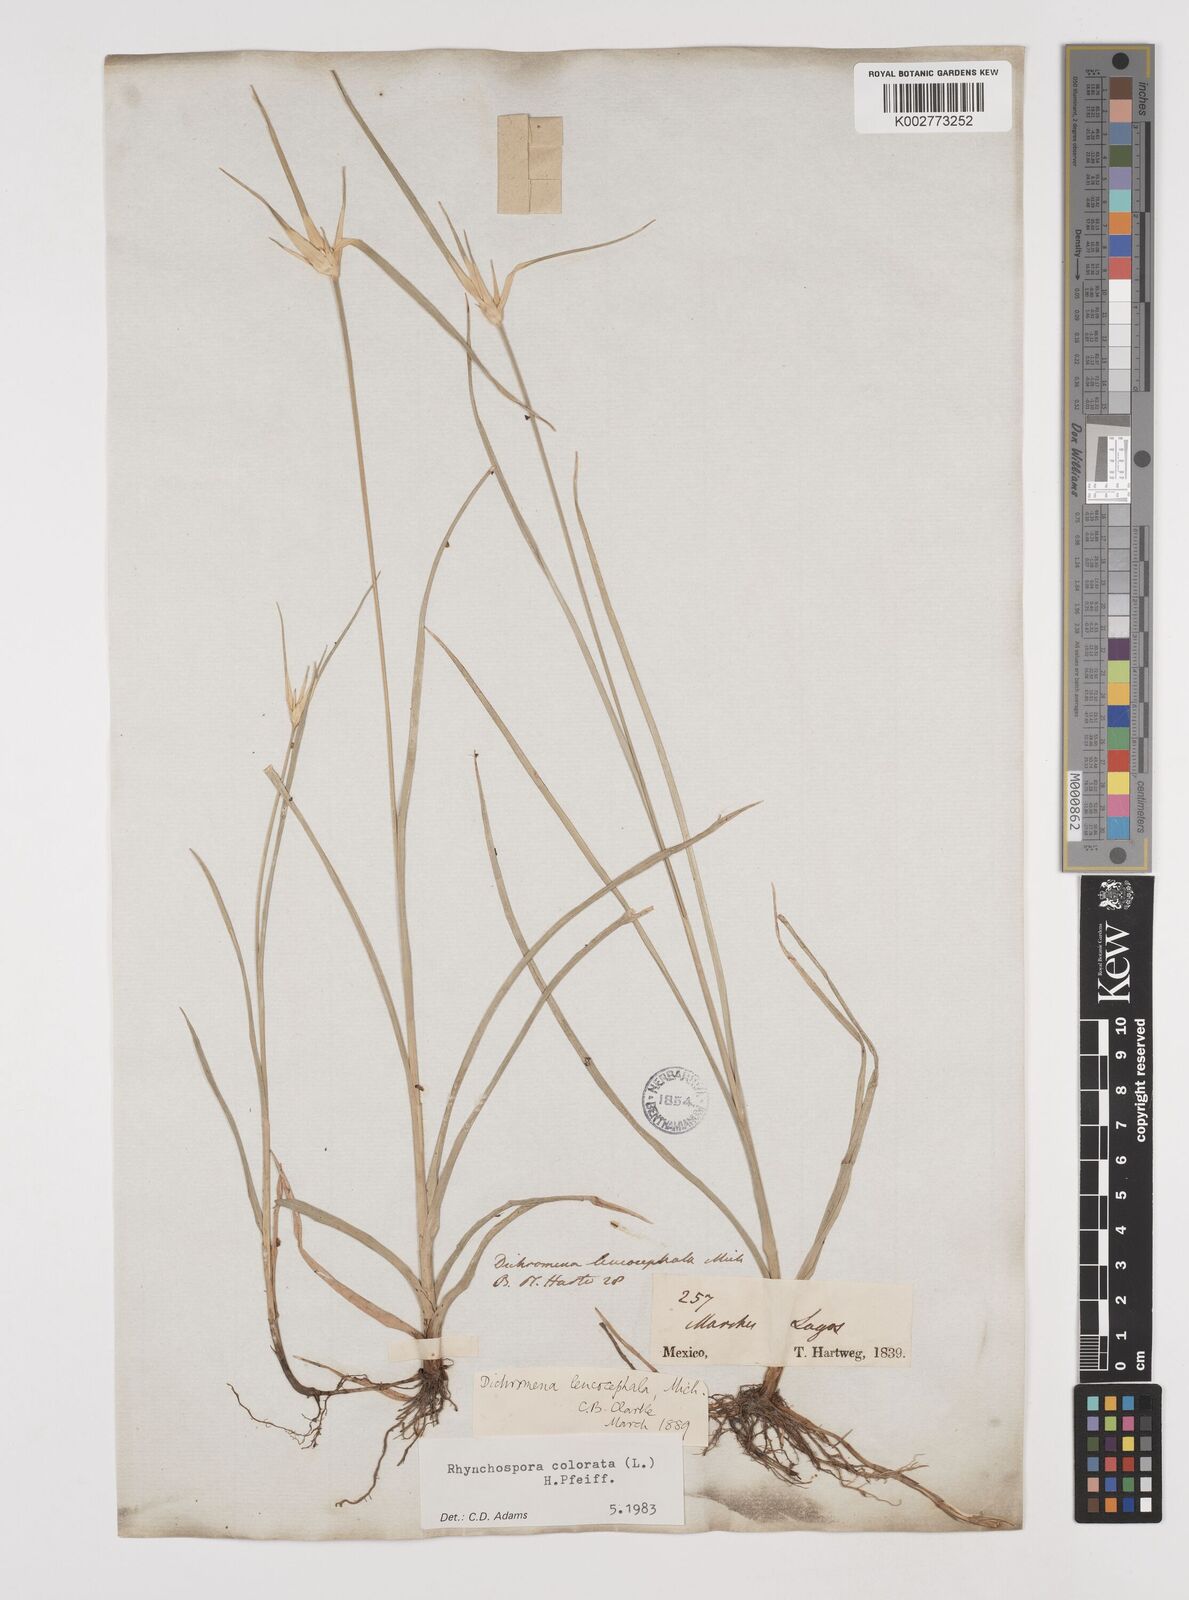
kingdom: Plantae
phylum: Tracheophyta
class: Liliopsida
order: Poales
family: Cyperaceae
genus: Rhynchospora
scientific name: Rhynchospora colorata
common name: Star sedge
